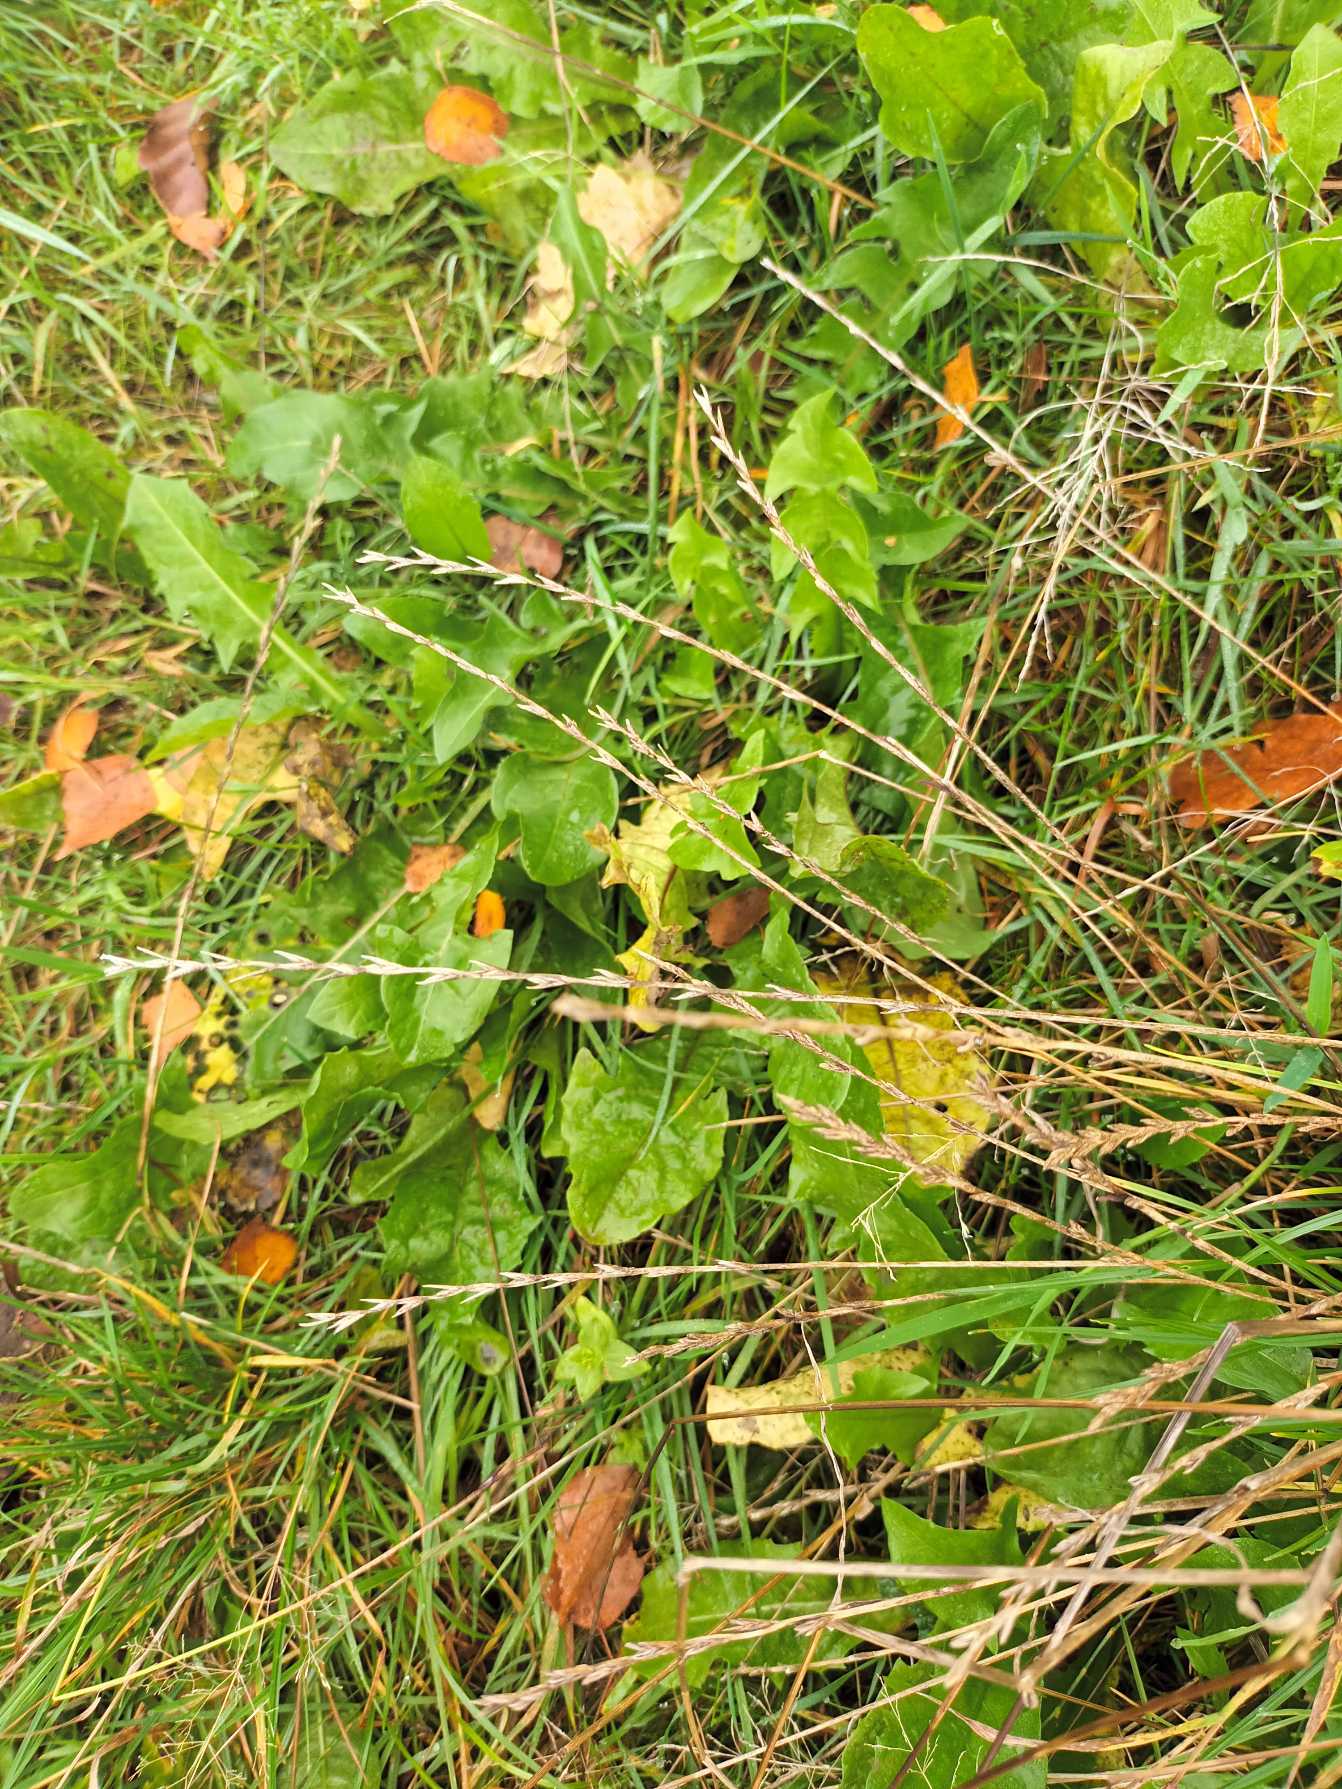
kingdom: Plantae
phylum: Tracheophyta
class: Liliopsida
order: Poales
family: Poaceae
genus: Lolium
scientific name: Lolium perenne
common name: Almindelig rajgræs
